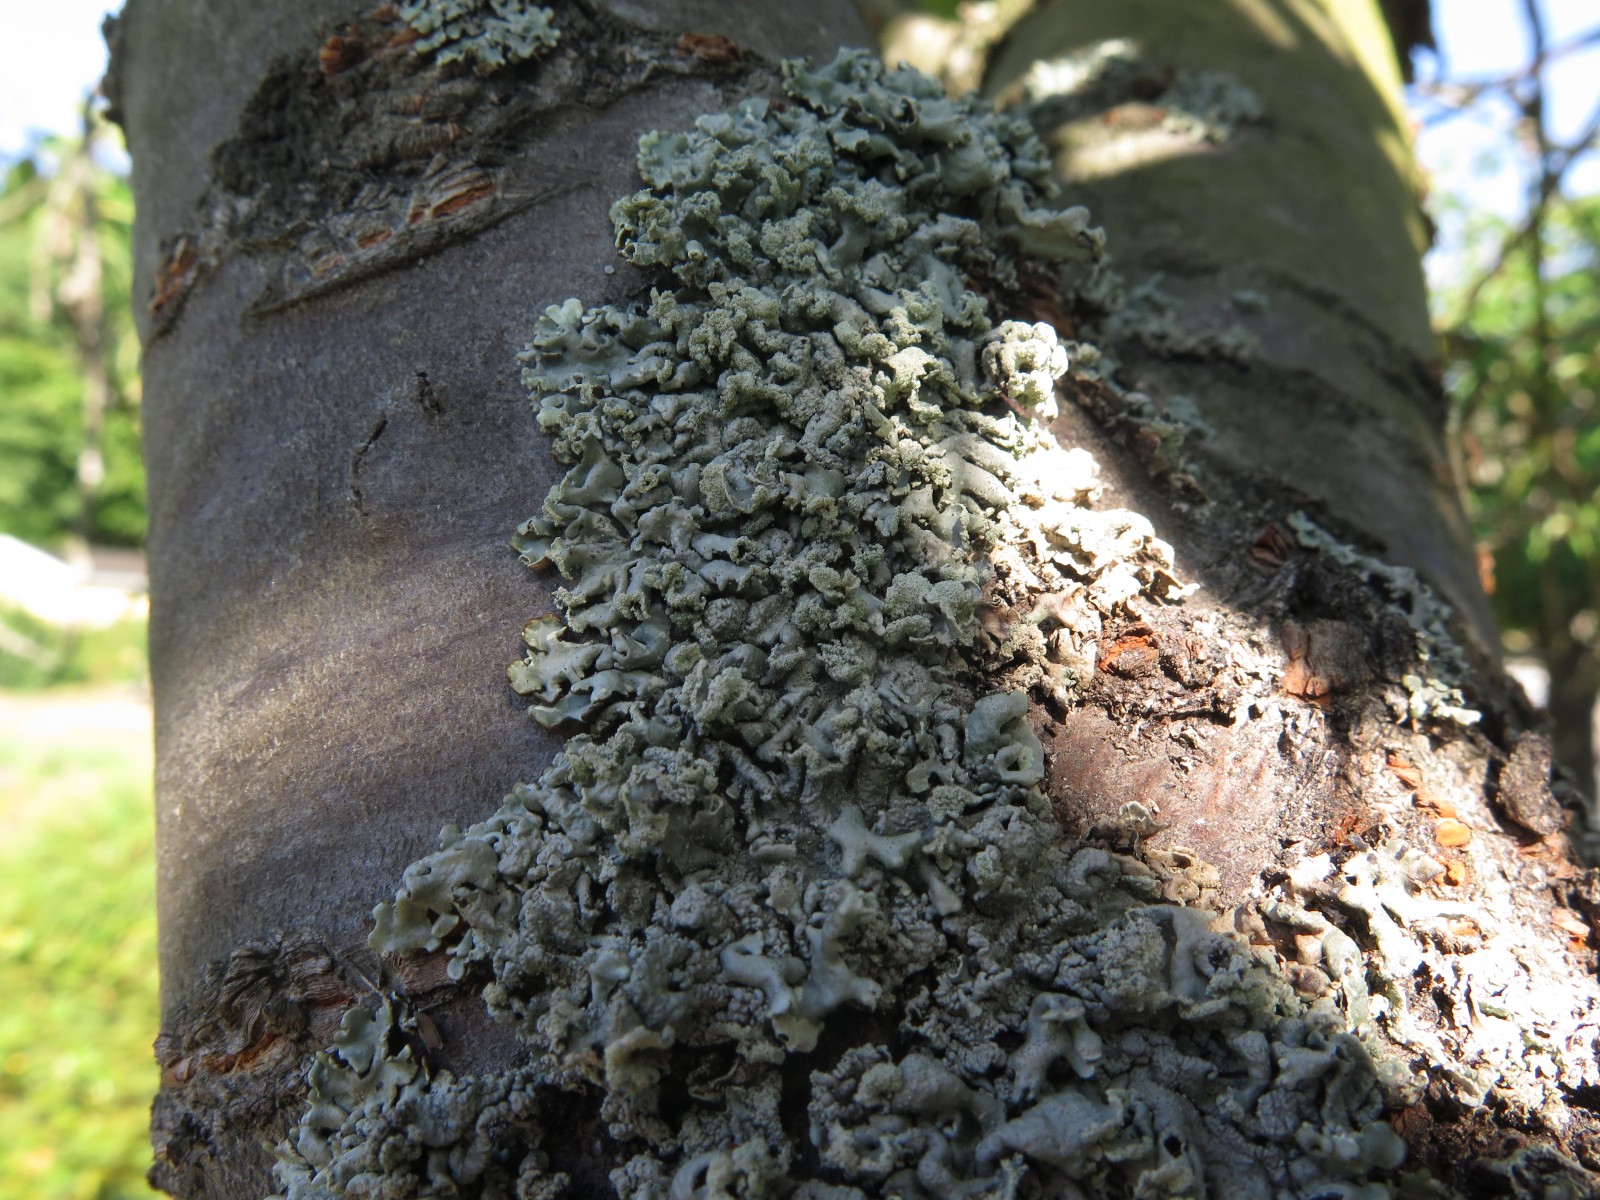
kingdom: Fungi
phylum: Ascomycota
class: Lecanoromycetes
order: Lecanorales
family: Parmeliaceae
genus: Hypogymnia
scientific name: Hypogymnia physodes
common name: almindelig kvistlav
